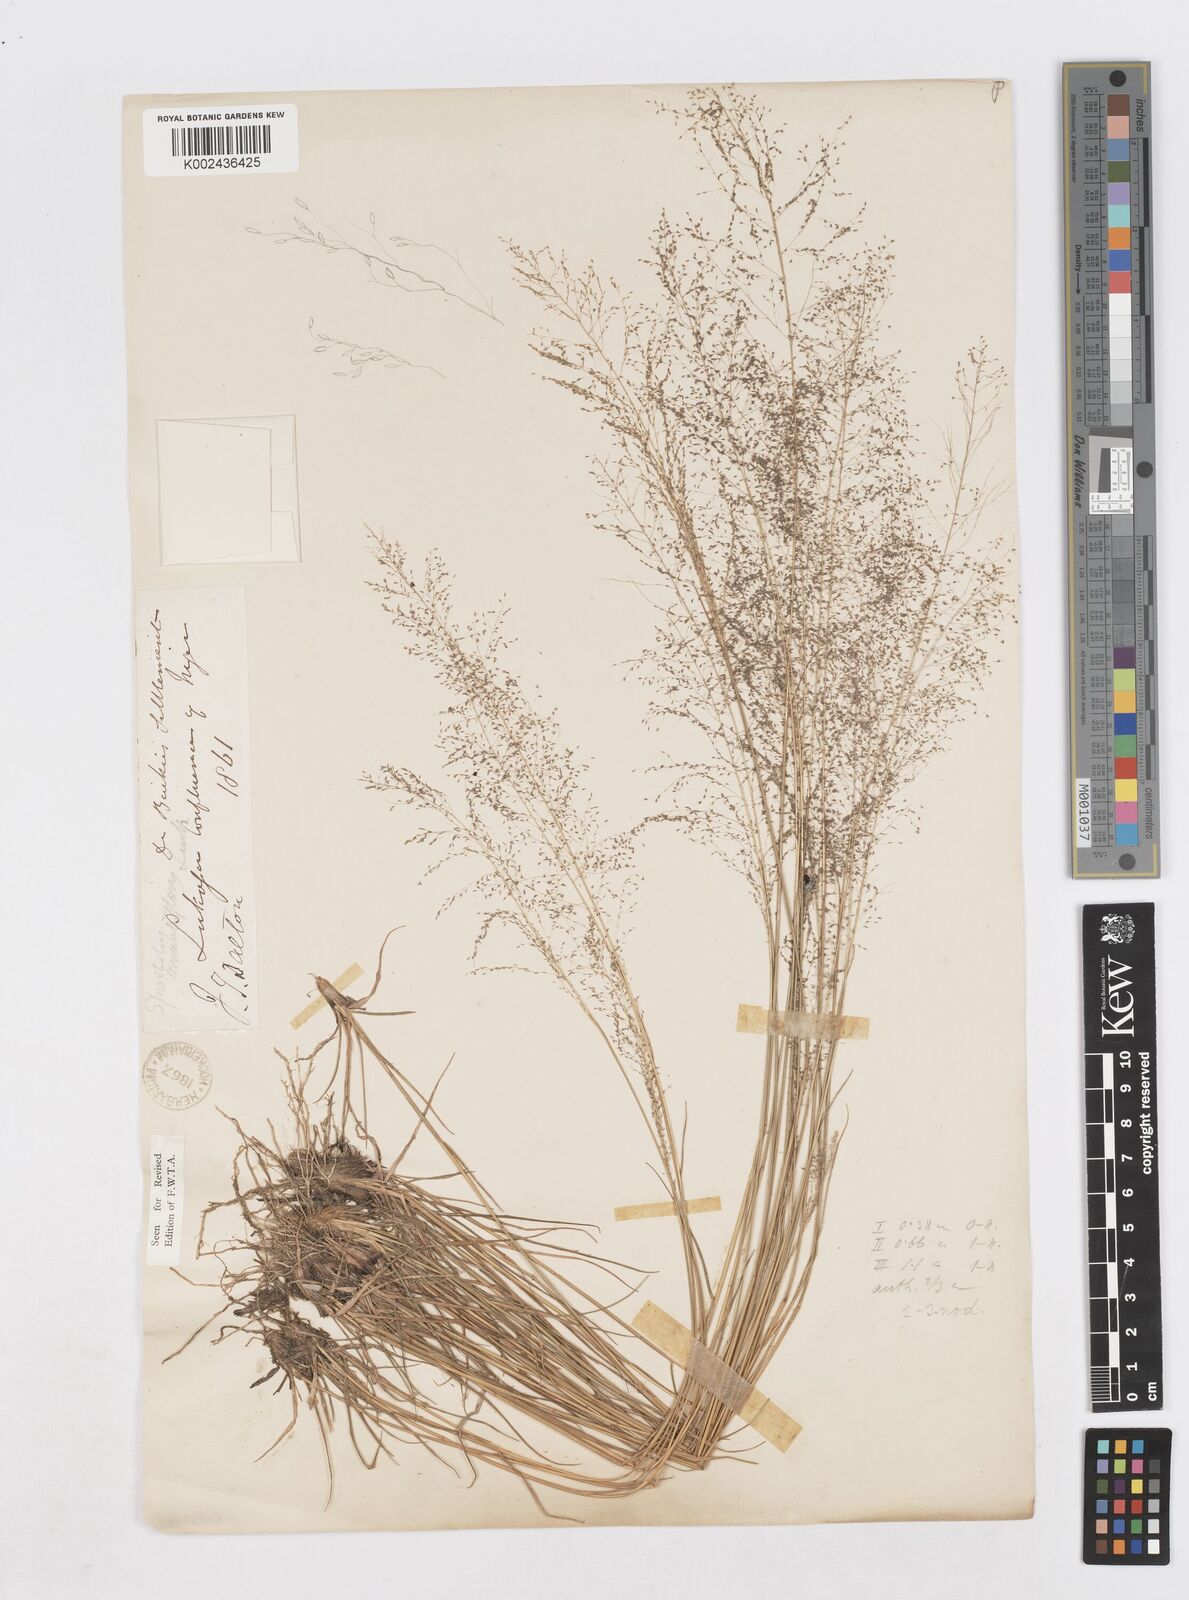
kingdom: Plantae
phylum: Tracheophyta
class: Liliopsida
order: Poales
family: Poaceae
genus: Sporobolus
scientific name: Sporobolus festivus
